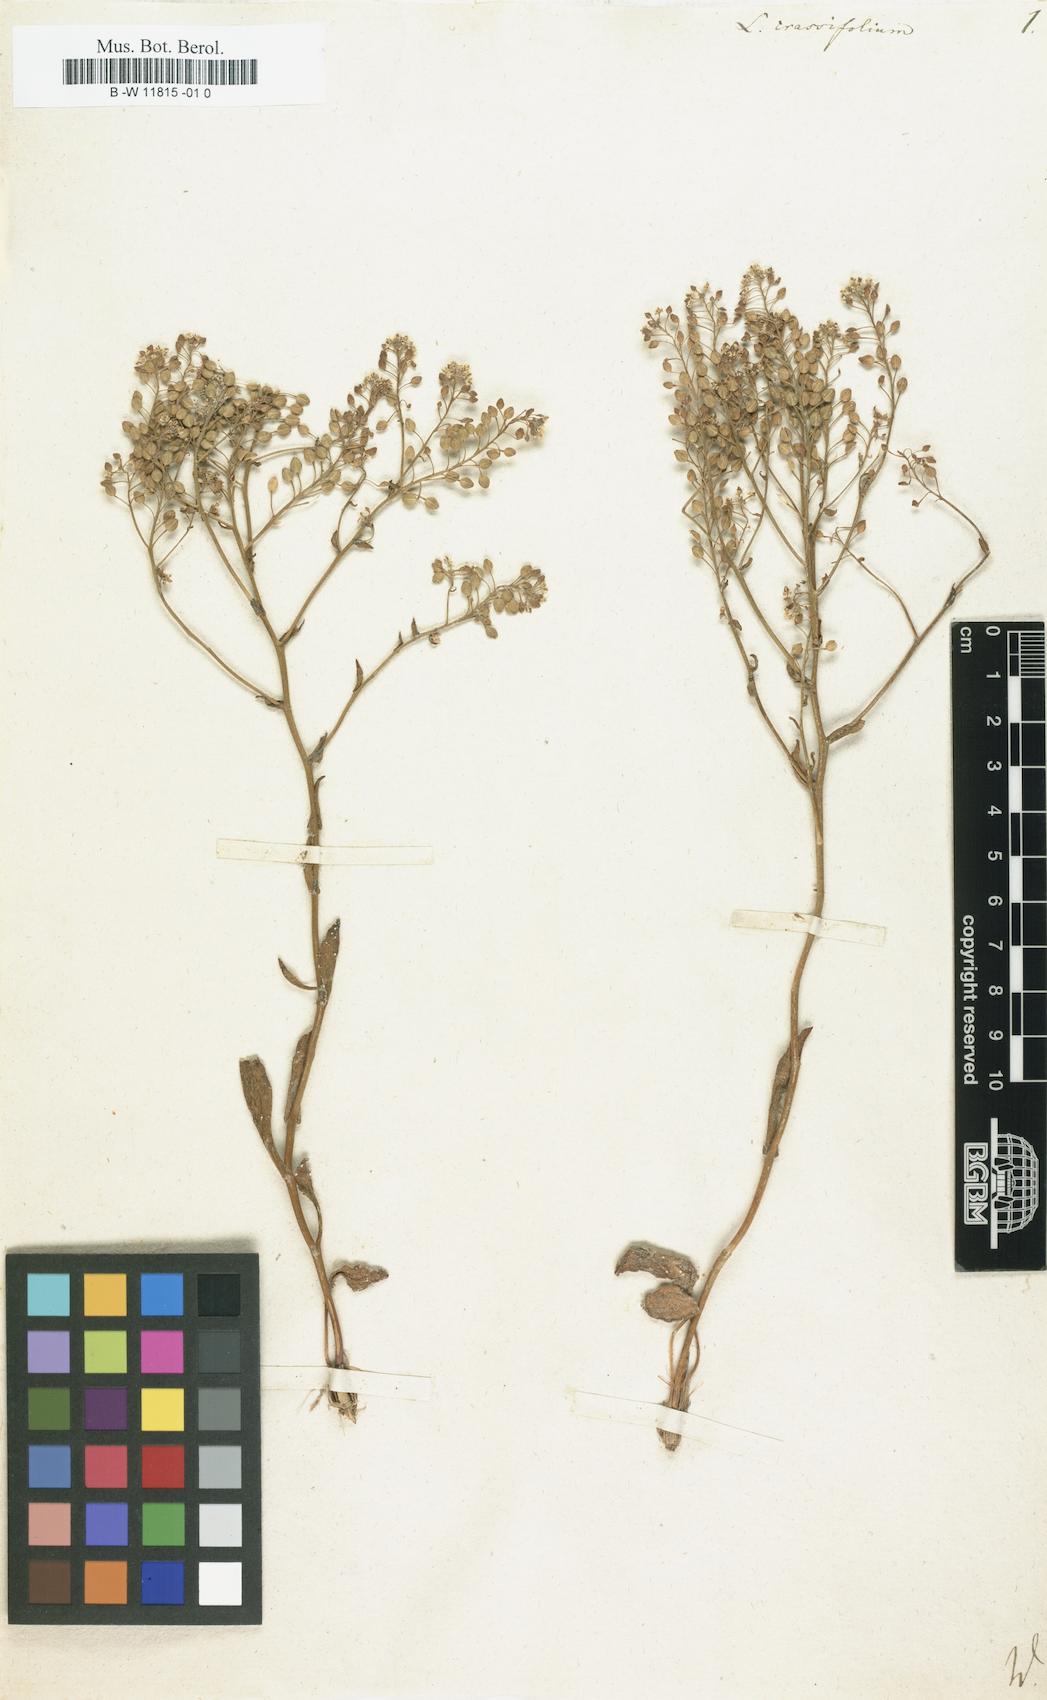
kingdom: Plantae
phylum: Tracheophyta
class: Magnoliopsida
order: Brassicales
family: Brassicaceae
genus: Lepidium
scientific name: Lepidium cartilagineum
